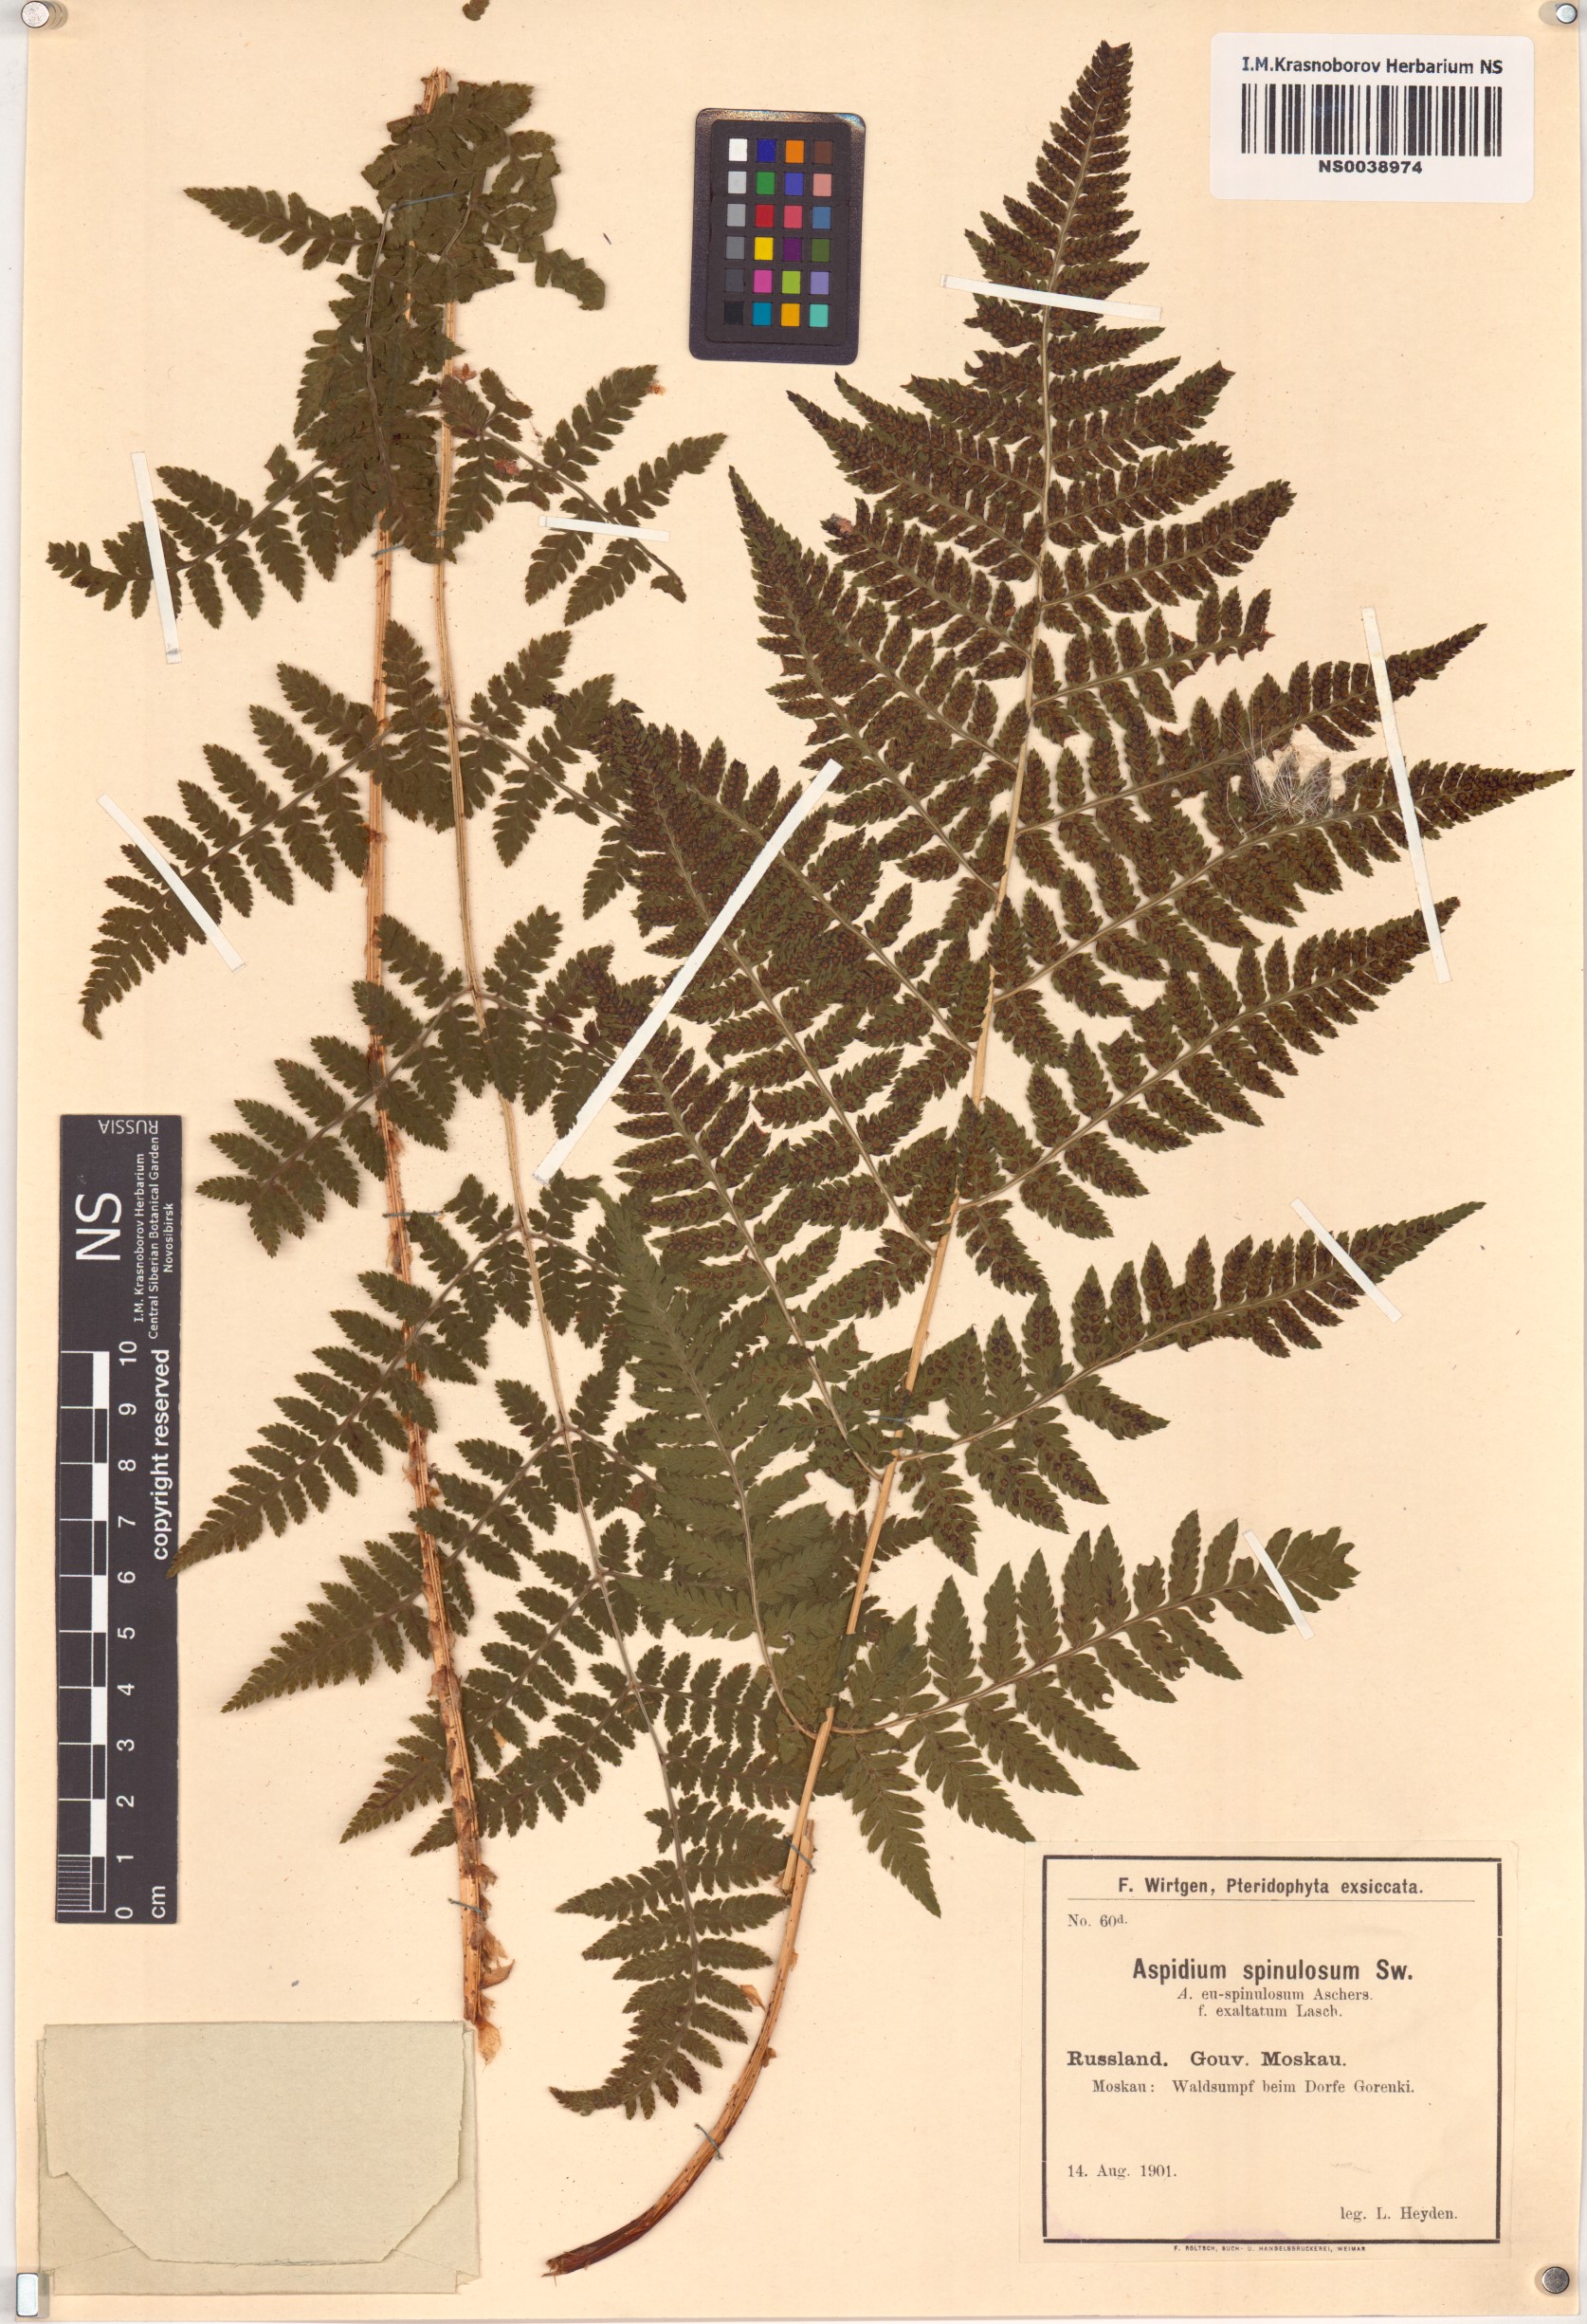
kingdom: Plantae
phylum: Tracheophyta
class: Polypodiopsida
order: Polypodiales
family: Dryopteridaceae
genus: Dryopteris
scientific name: Dryopteris carthusiana
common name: Narrow buckler-fern
